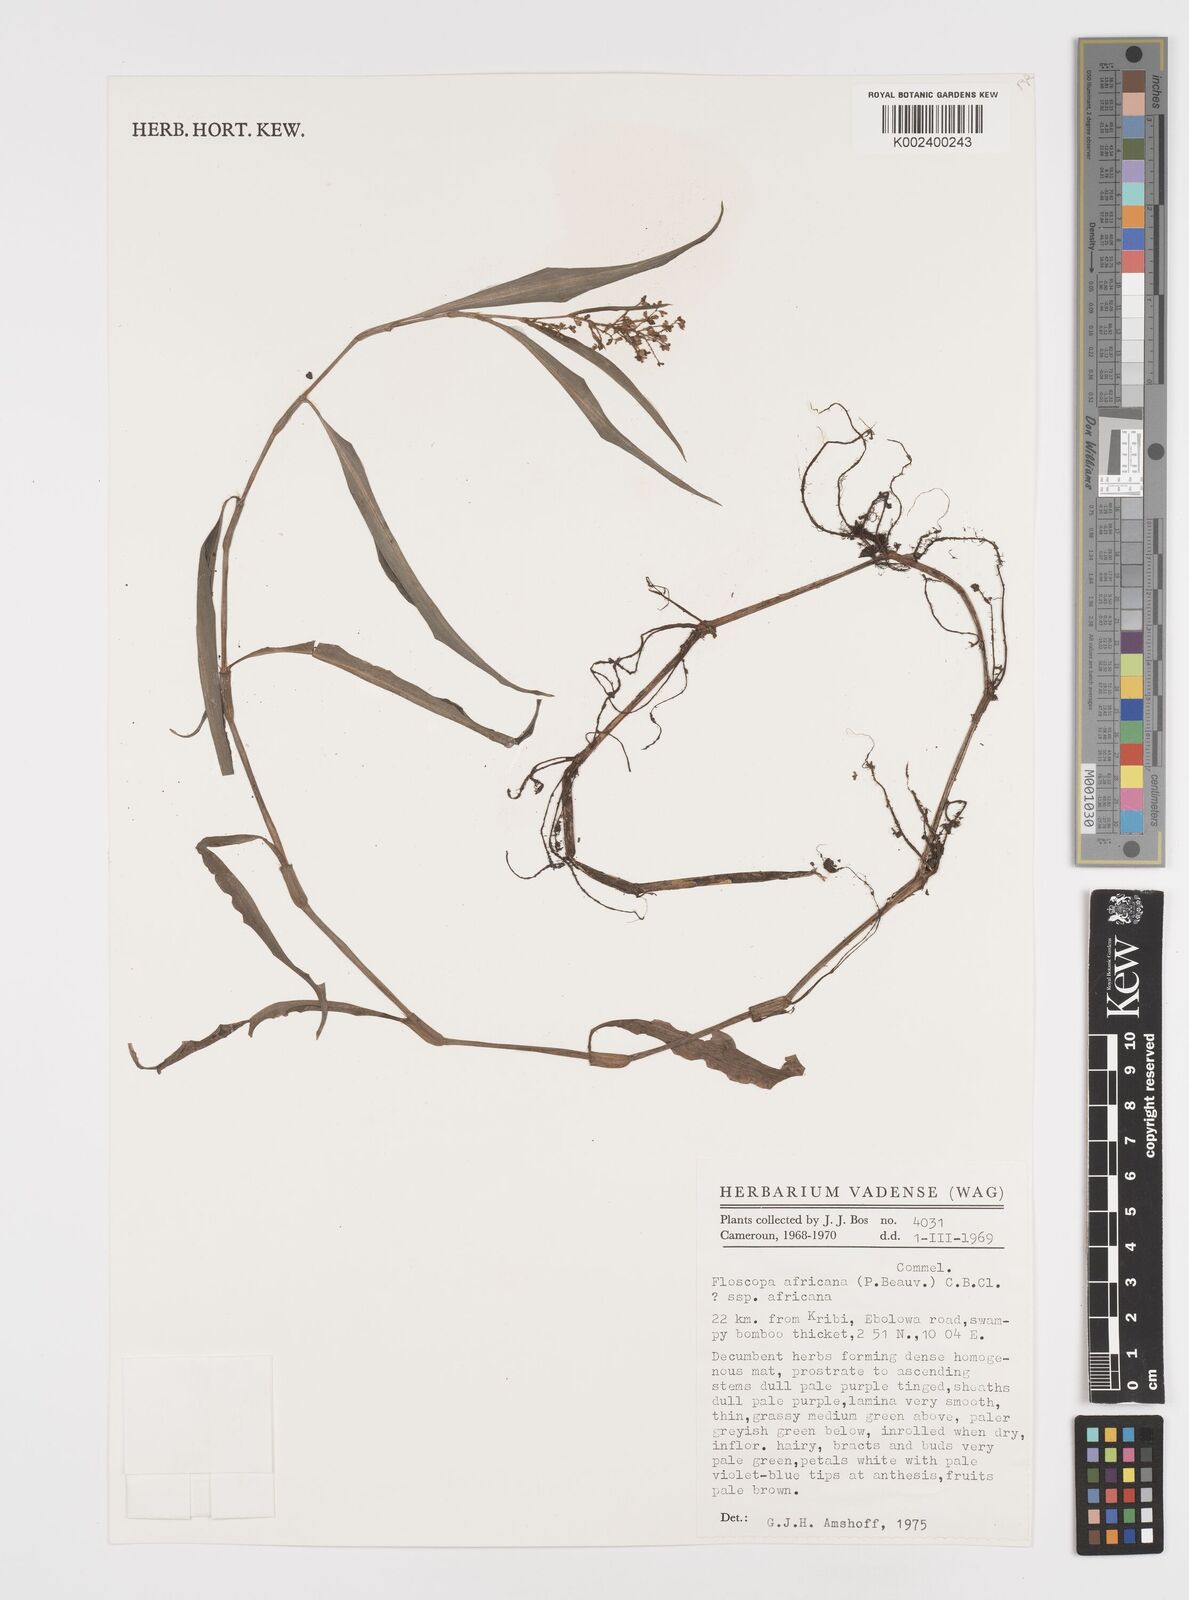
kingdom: Plantae
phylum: Tracheophyta
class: Liliopsida
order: Commelinales
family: Commelinaceae
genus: Floscopa
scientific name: Floscopa africana
